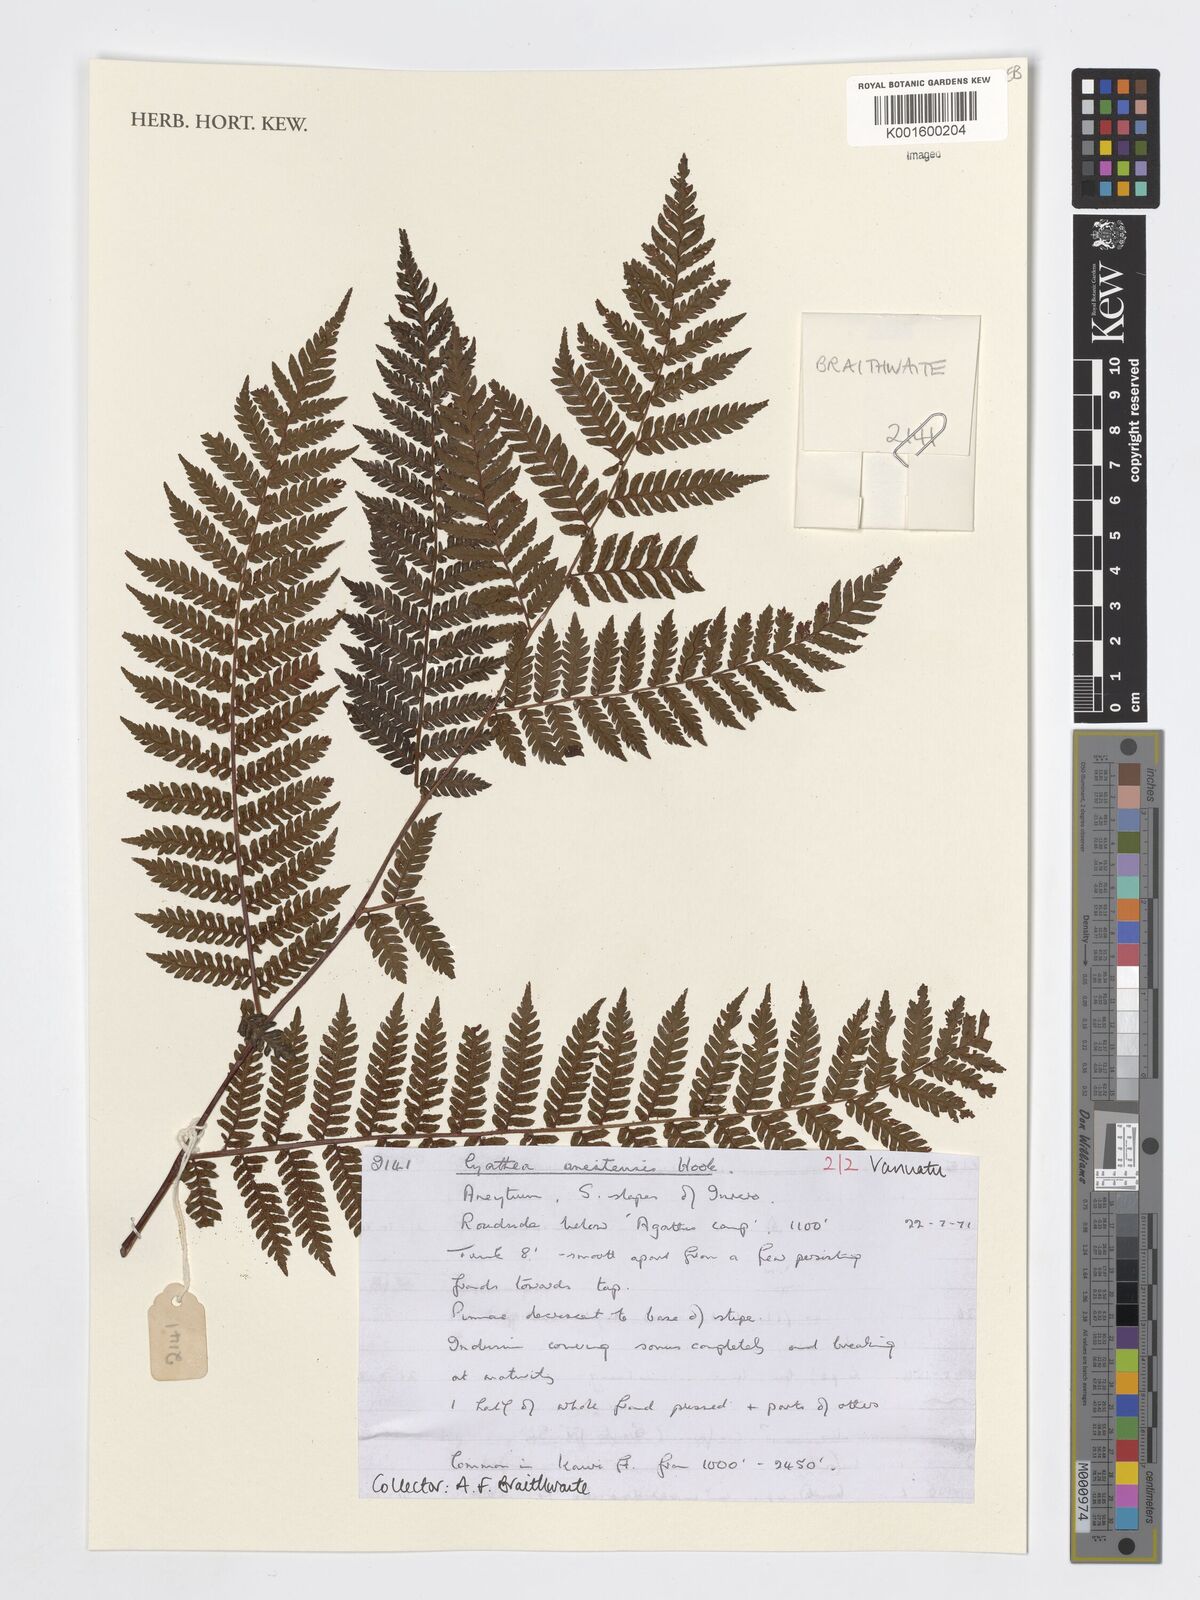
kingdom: Plantae
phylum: Tracheophyta
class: Polypodiopsida
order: Cyatheales
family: Cyatheaceae
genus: Cyathea
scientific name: Cyathea
